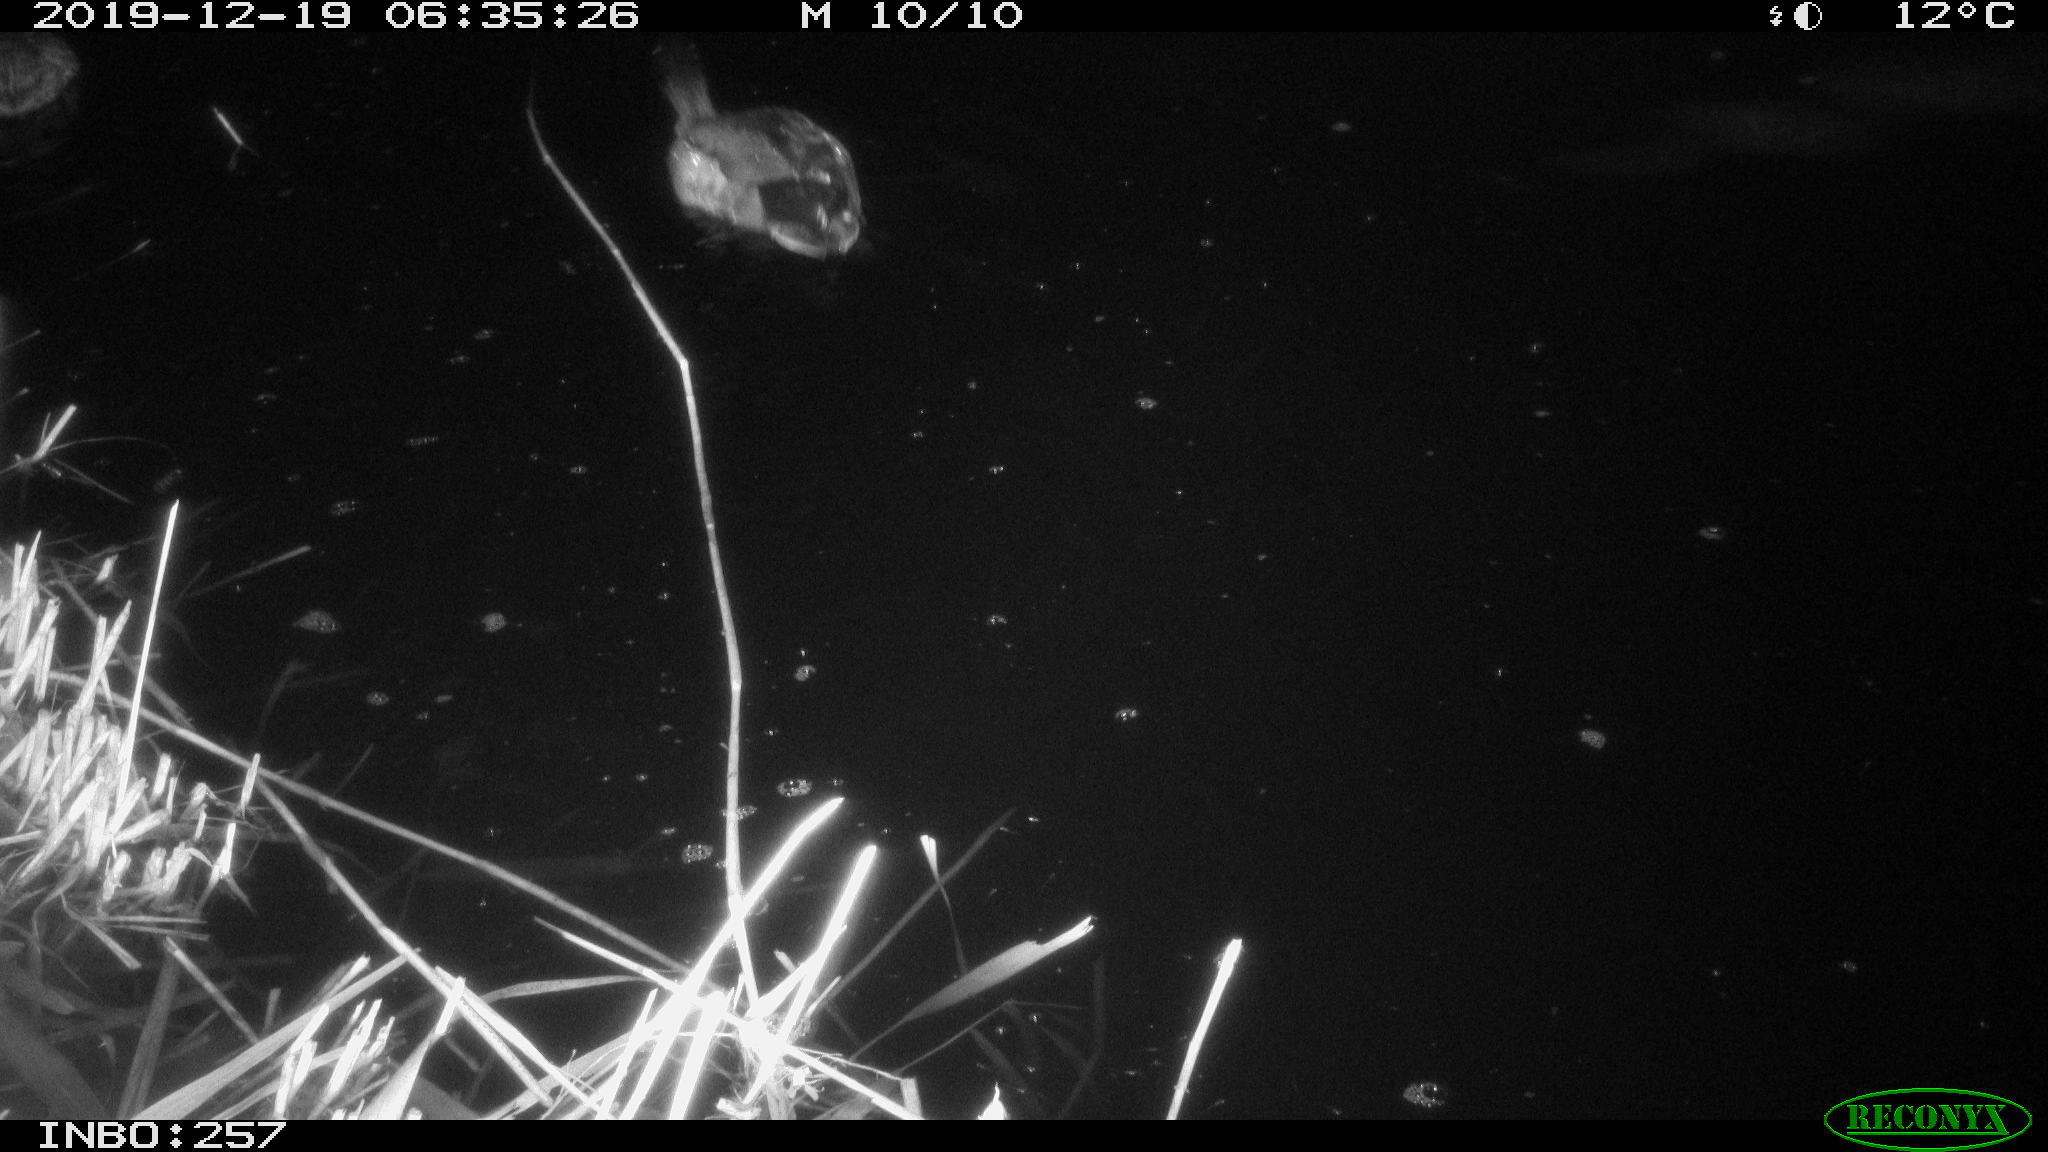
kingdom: Animalia
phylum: Chordata
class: Aves
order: Anseriformes
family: Anatidae
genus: Anas
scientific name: Anas platyrhynchos
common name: Mallard
